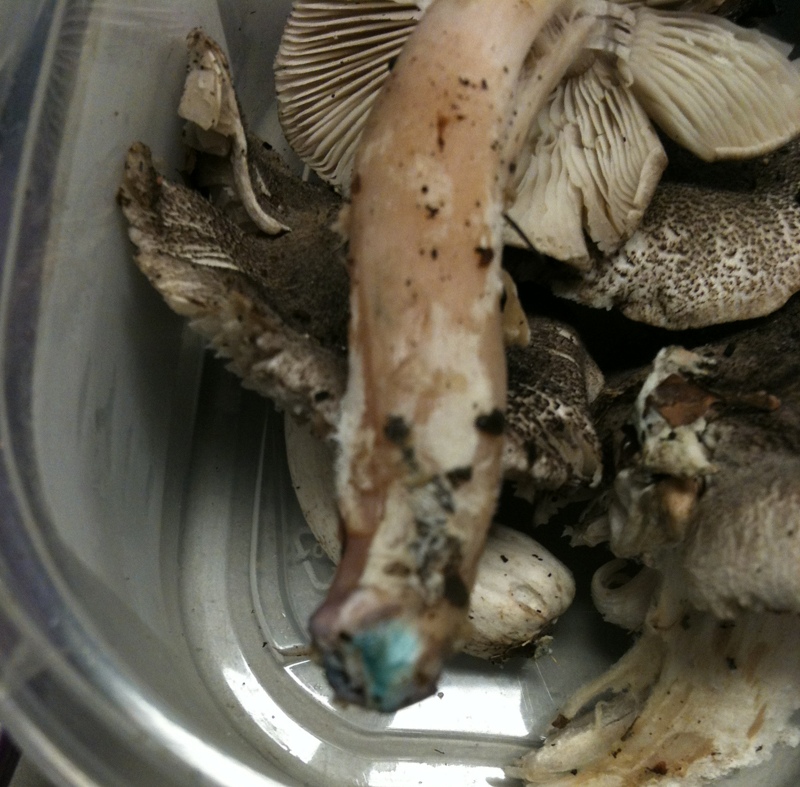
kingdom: Fungi
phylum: Basidiomycota
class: Agaricomycetes
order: Agaricales
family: Tricholomataceae
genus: Tricholoma
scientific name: Tricholoma orirubens
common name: rødbladet ridderhat
